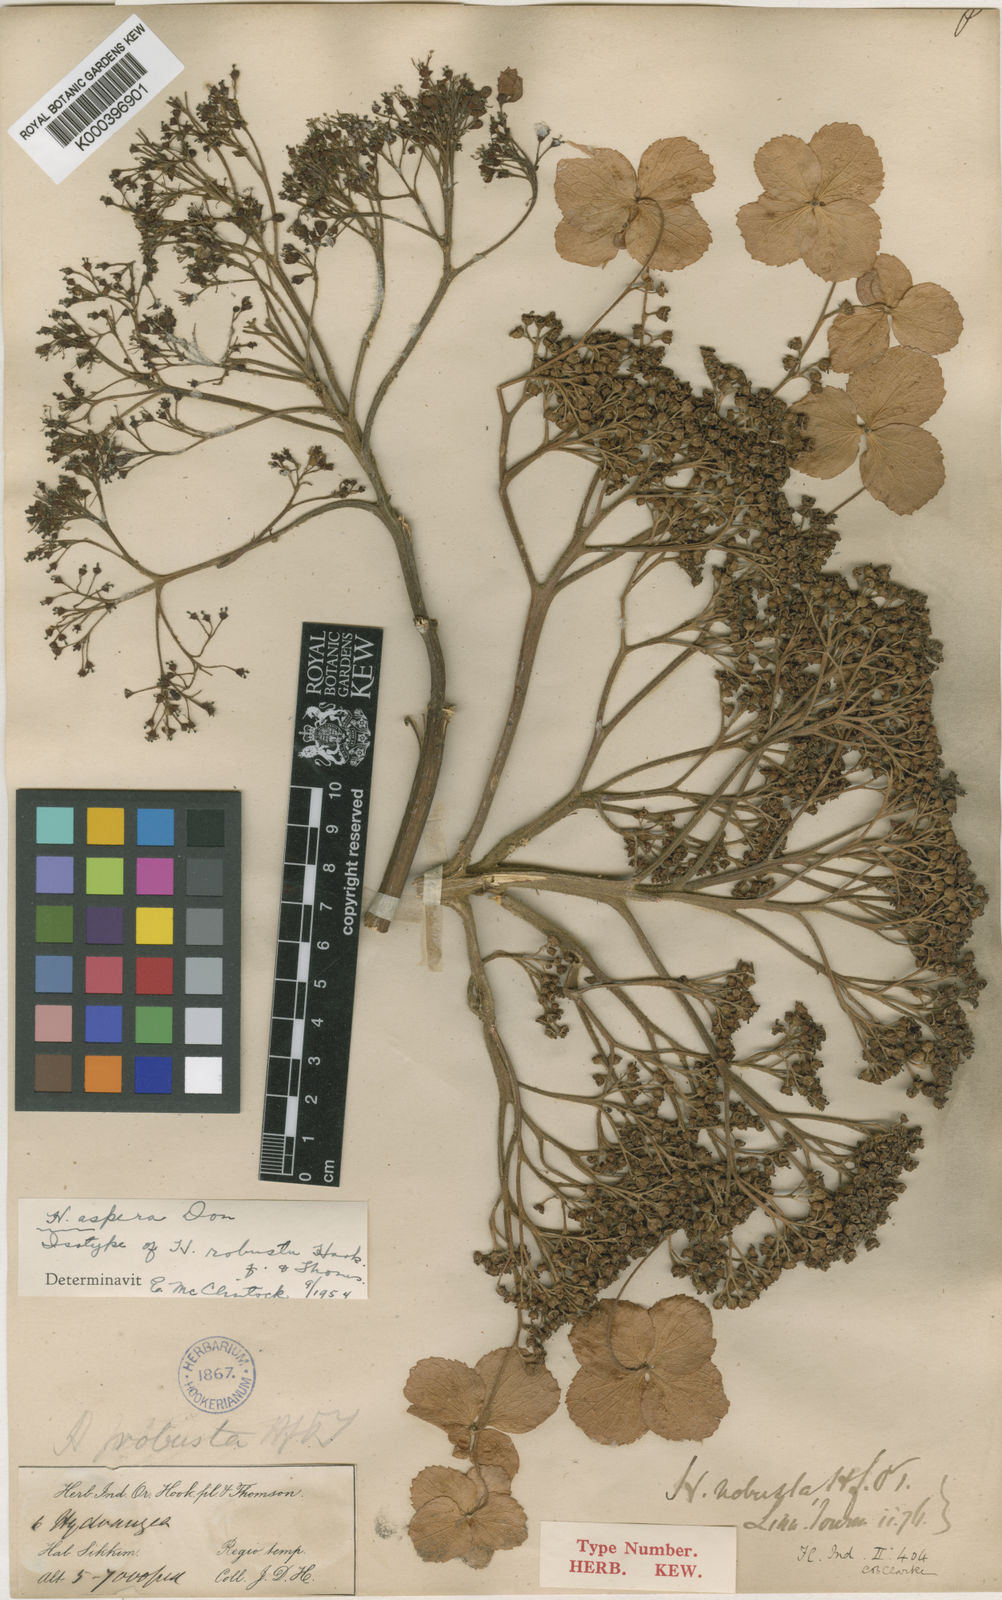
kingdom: Plantae
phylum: Tracheophyta
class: Magnoliopsida
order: Cornales
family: Hydrangeaceae
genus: Hydrangea
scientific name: Hydrangea aspera
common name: Rough-leaf hydrangea
